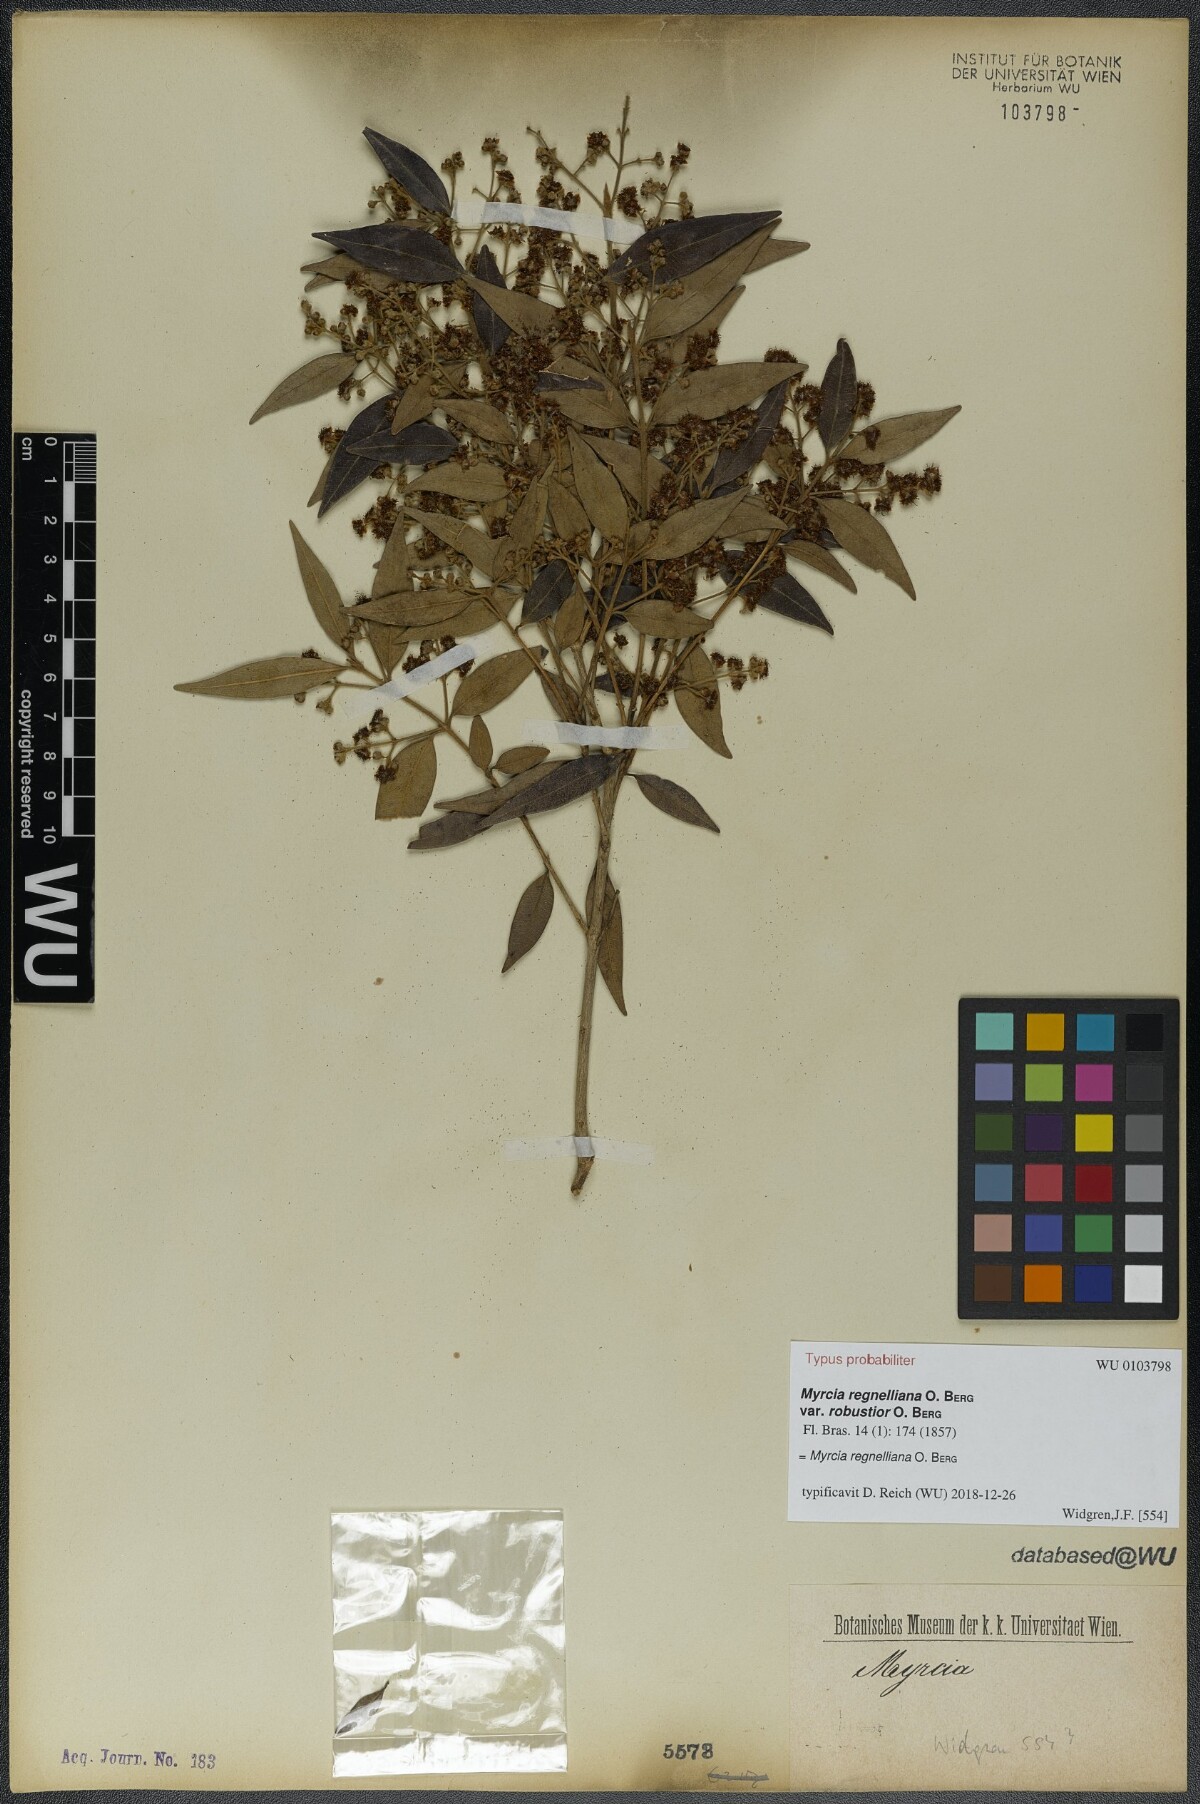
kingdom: Plantae
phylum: Tracheophyta
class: Magnoliopsida
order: Myrtales
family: Myrtaceae
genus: Myrcia
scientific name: Myrcia regnelliana
